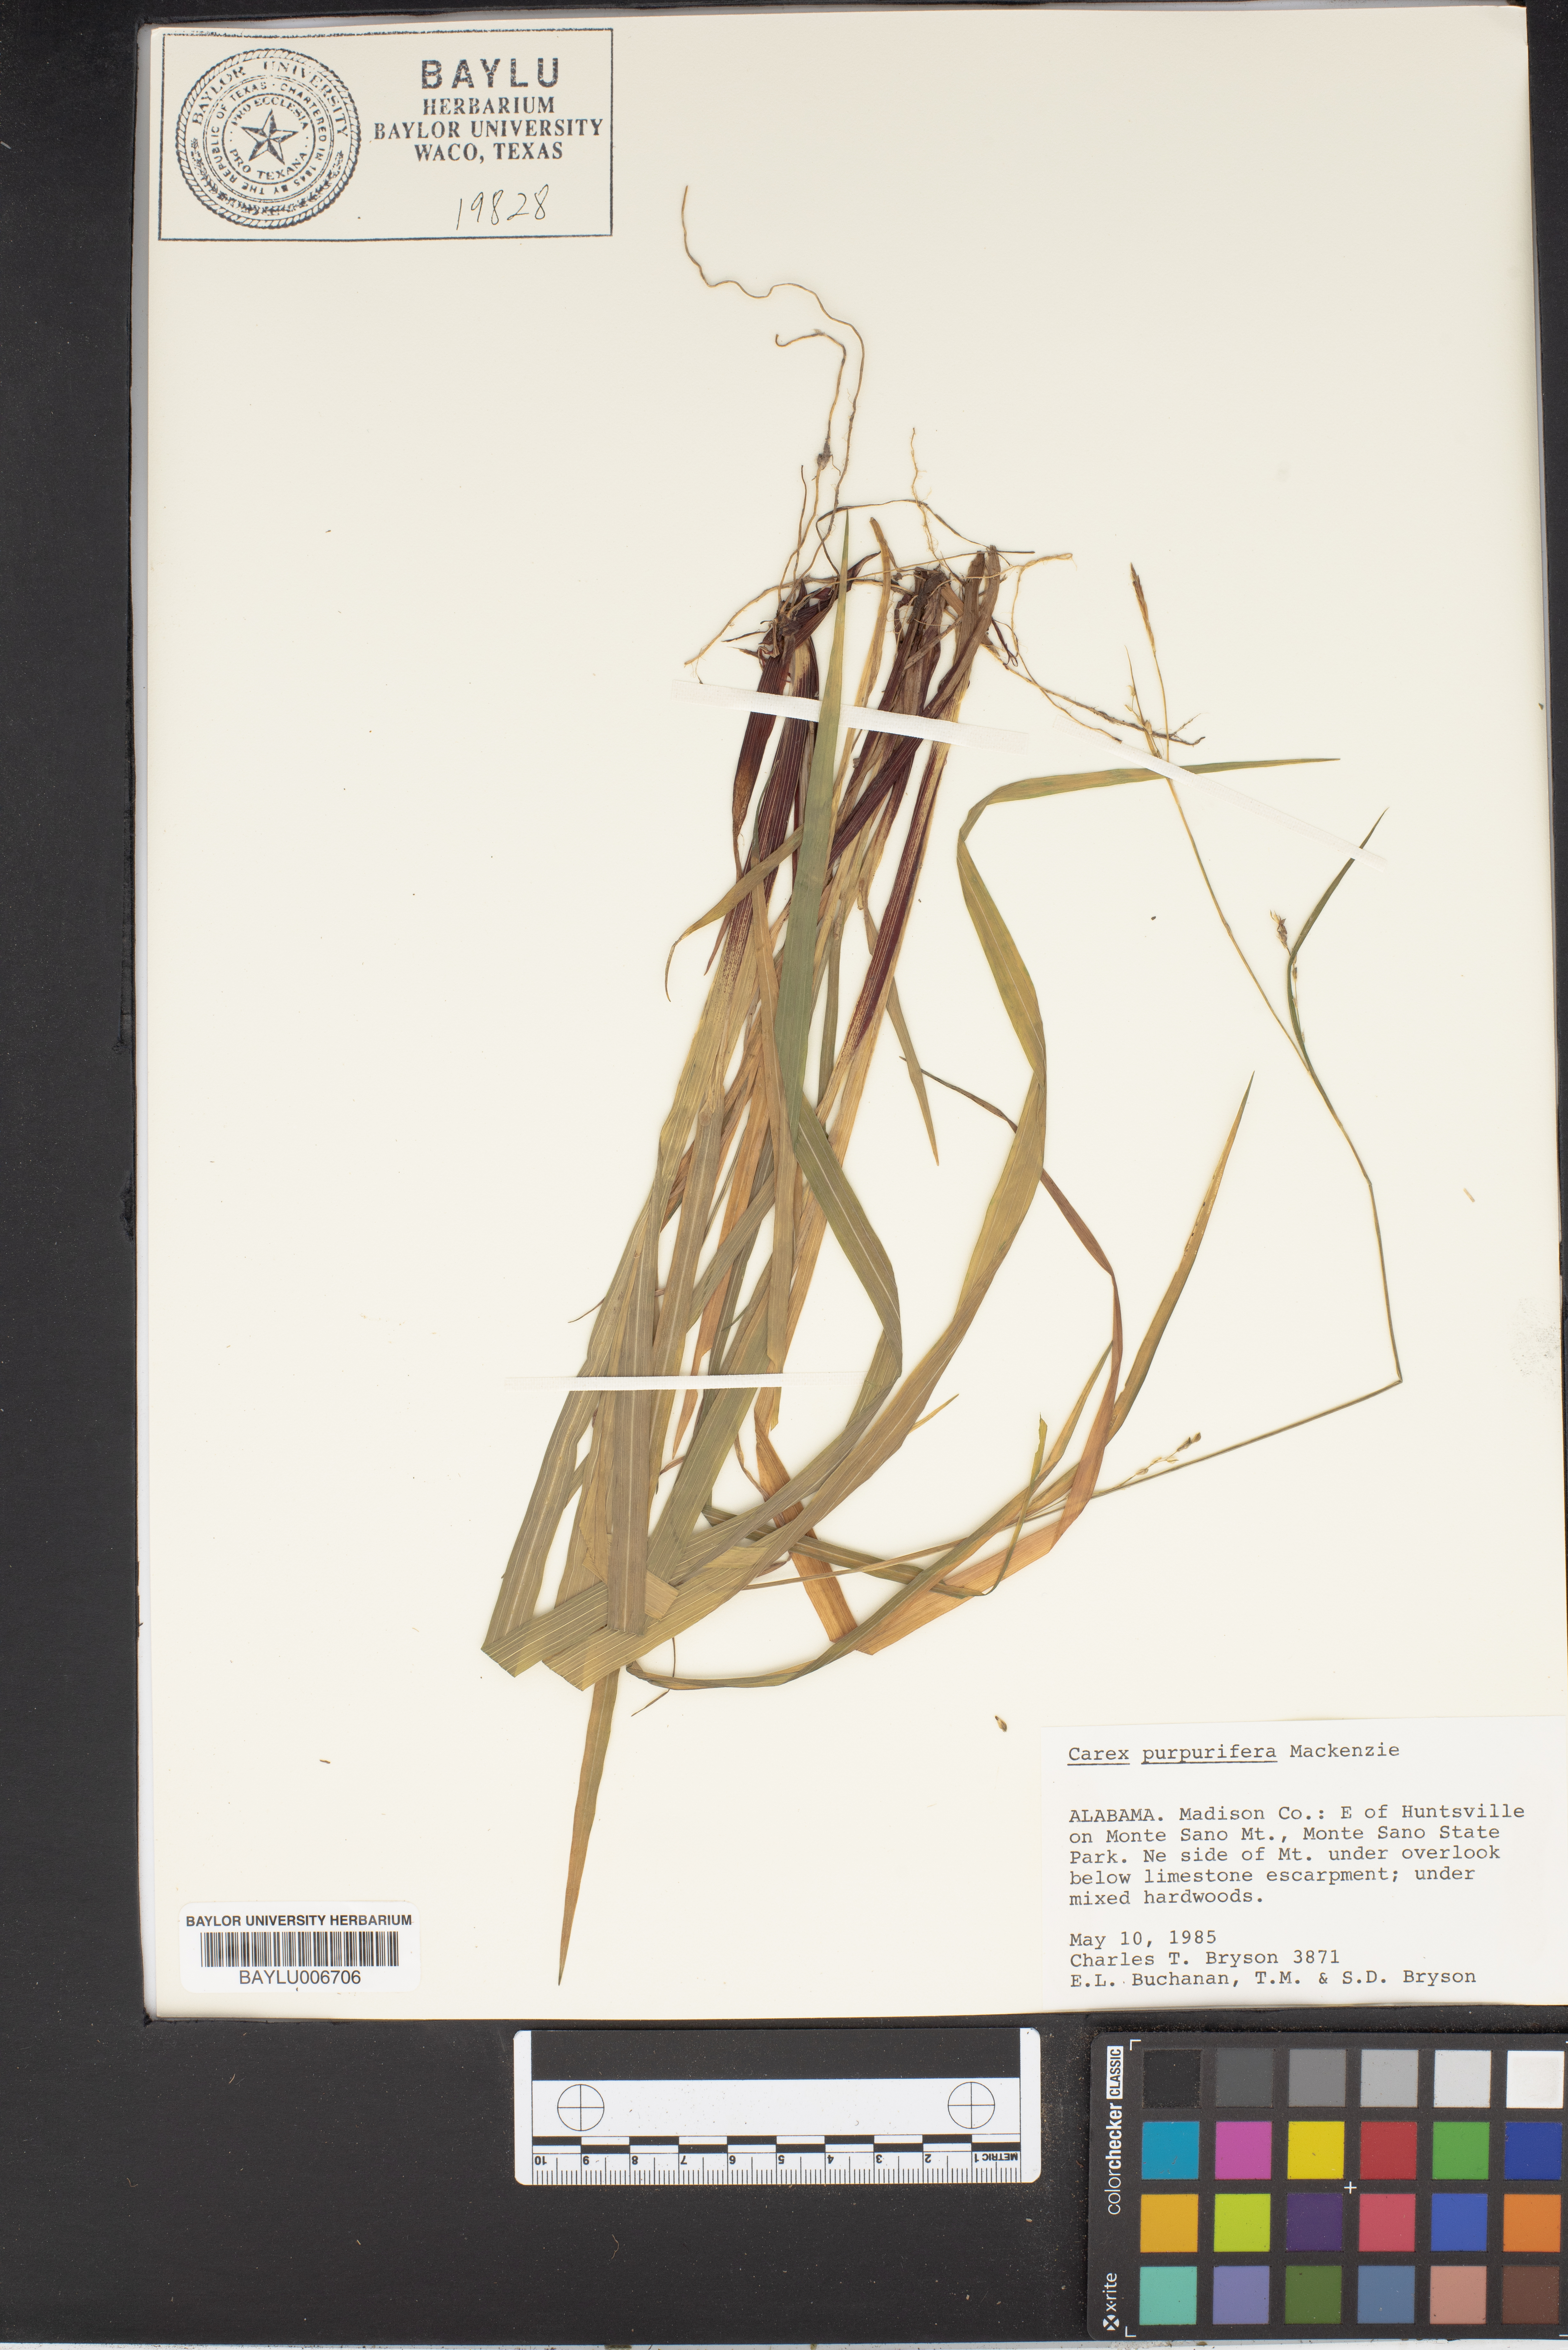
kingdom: Plantae
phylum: Tracheophyta
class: Liliopsida
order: Poales
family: Cyperaceae
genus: Carex
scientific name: Carex purpurifera
